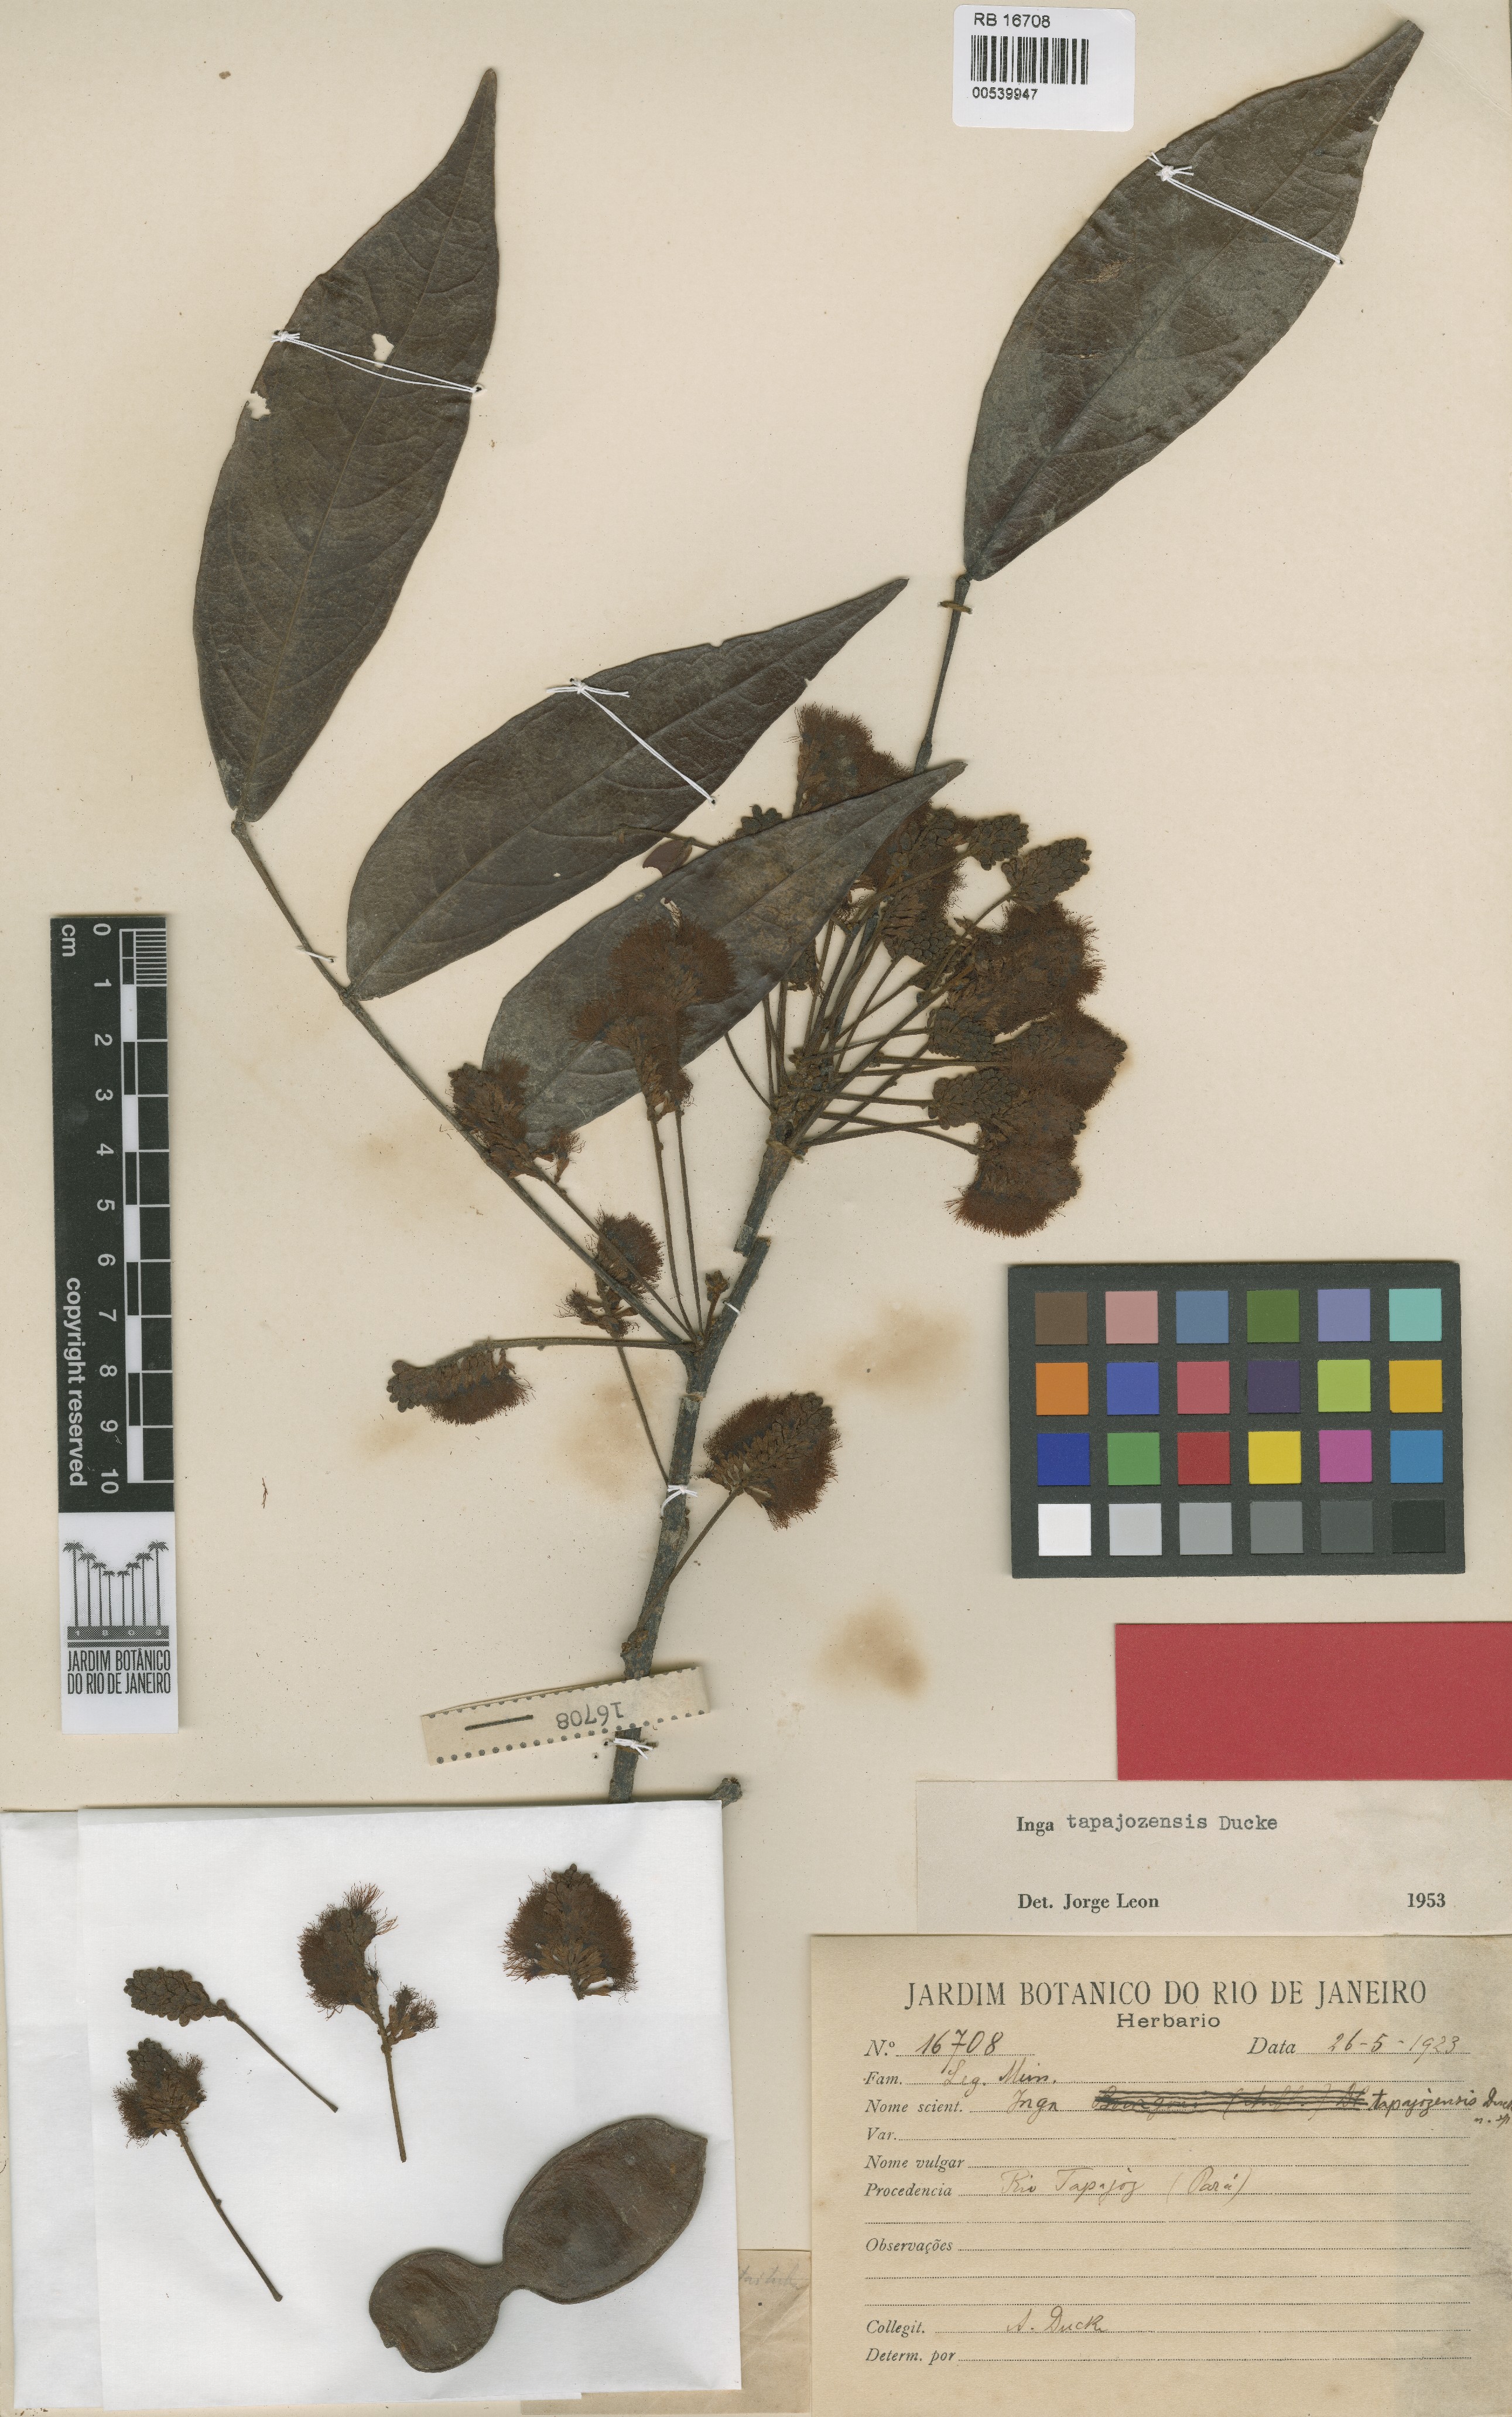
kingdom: Plantae
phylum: Tracheophyta
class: Magnoliopsida
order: Fabales
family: Fabaceae
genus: Inga
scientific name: Inga bourgoni
